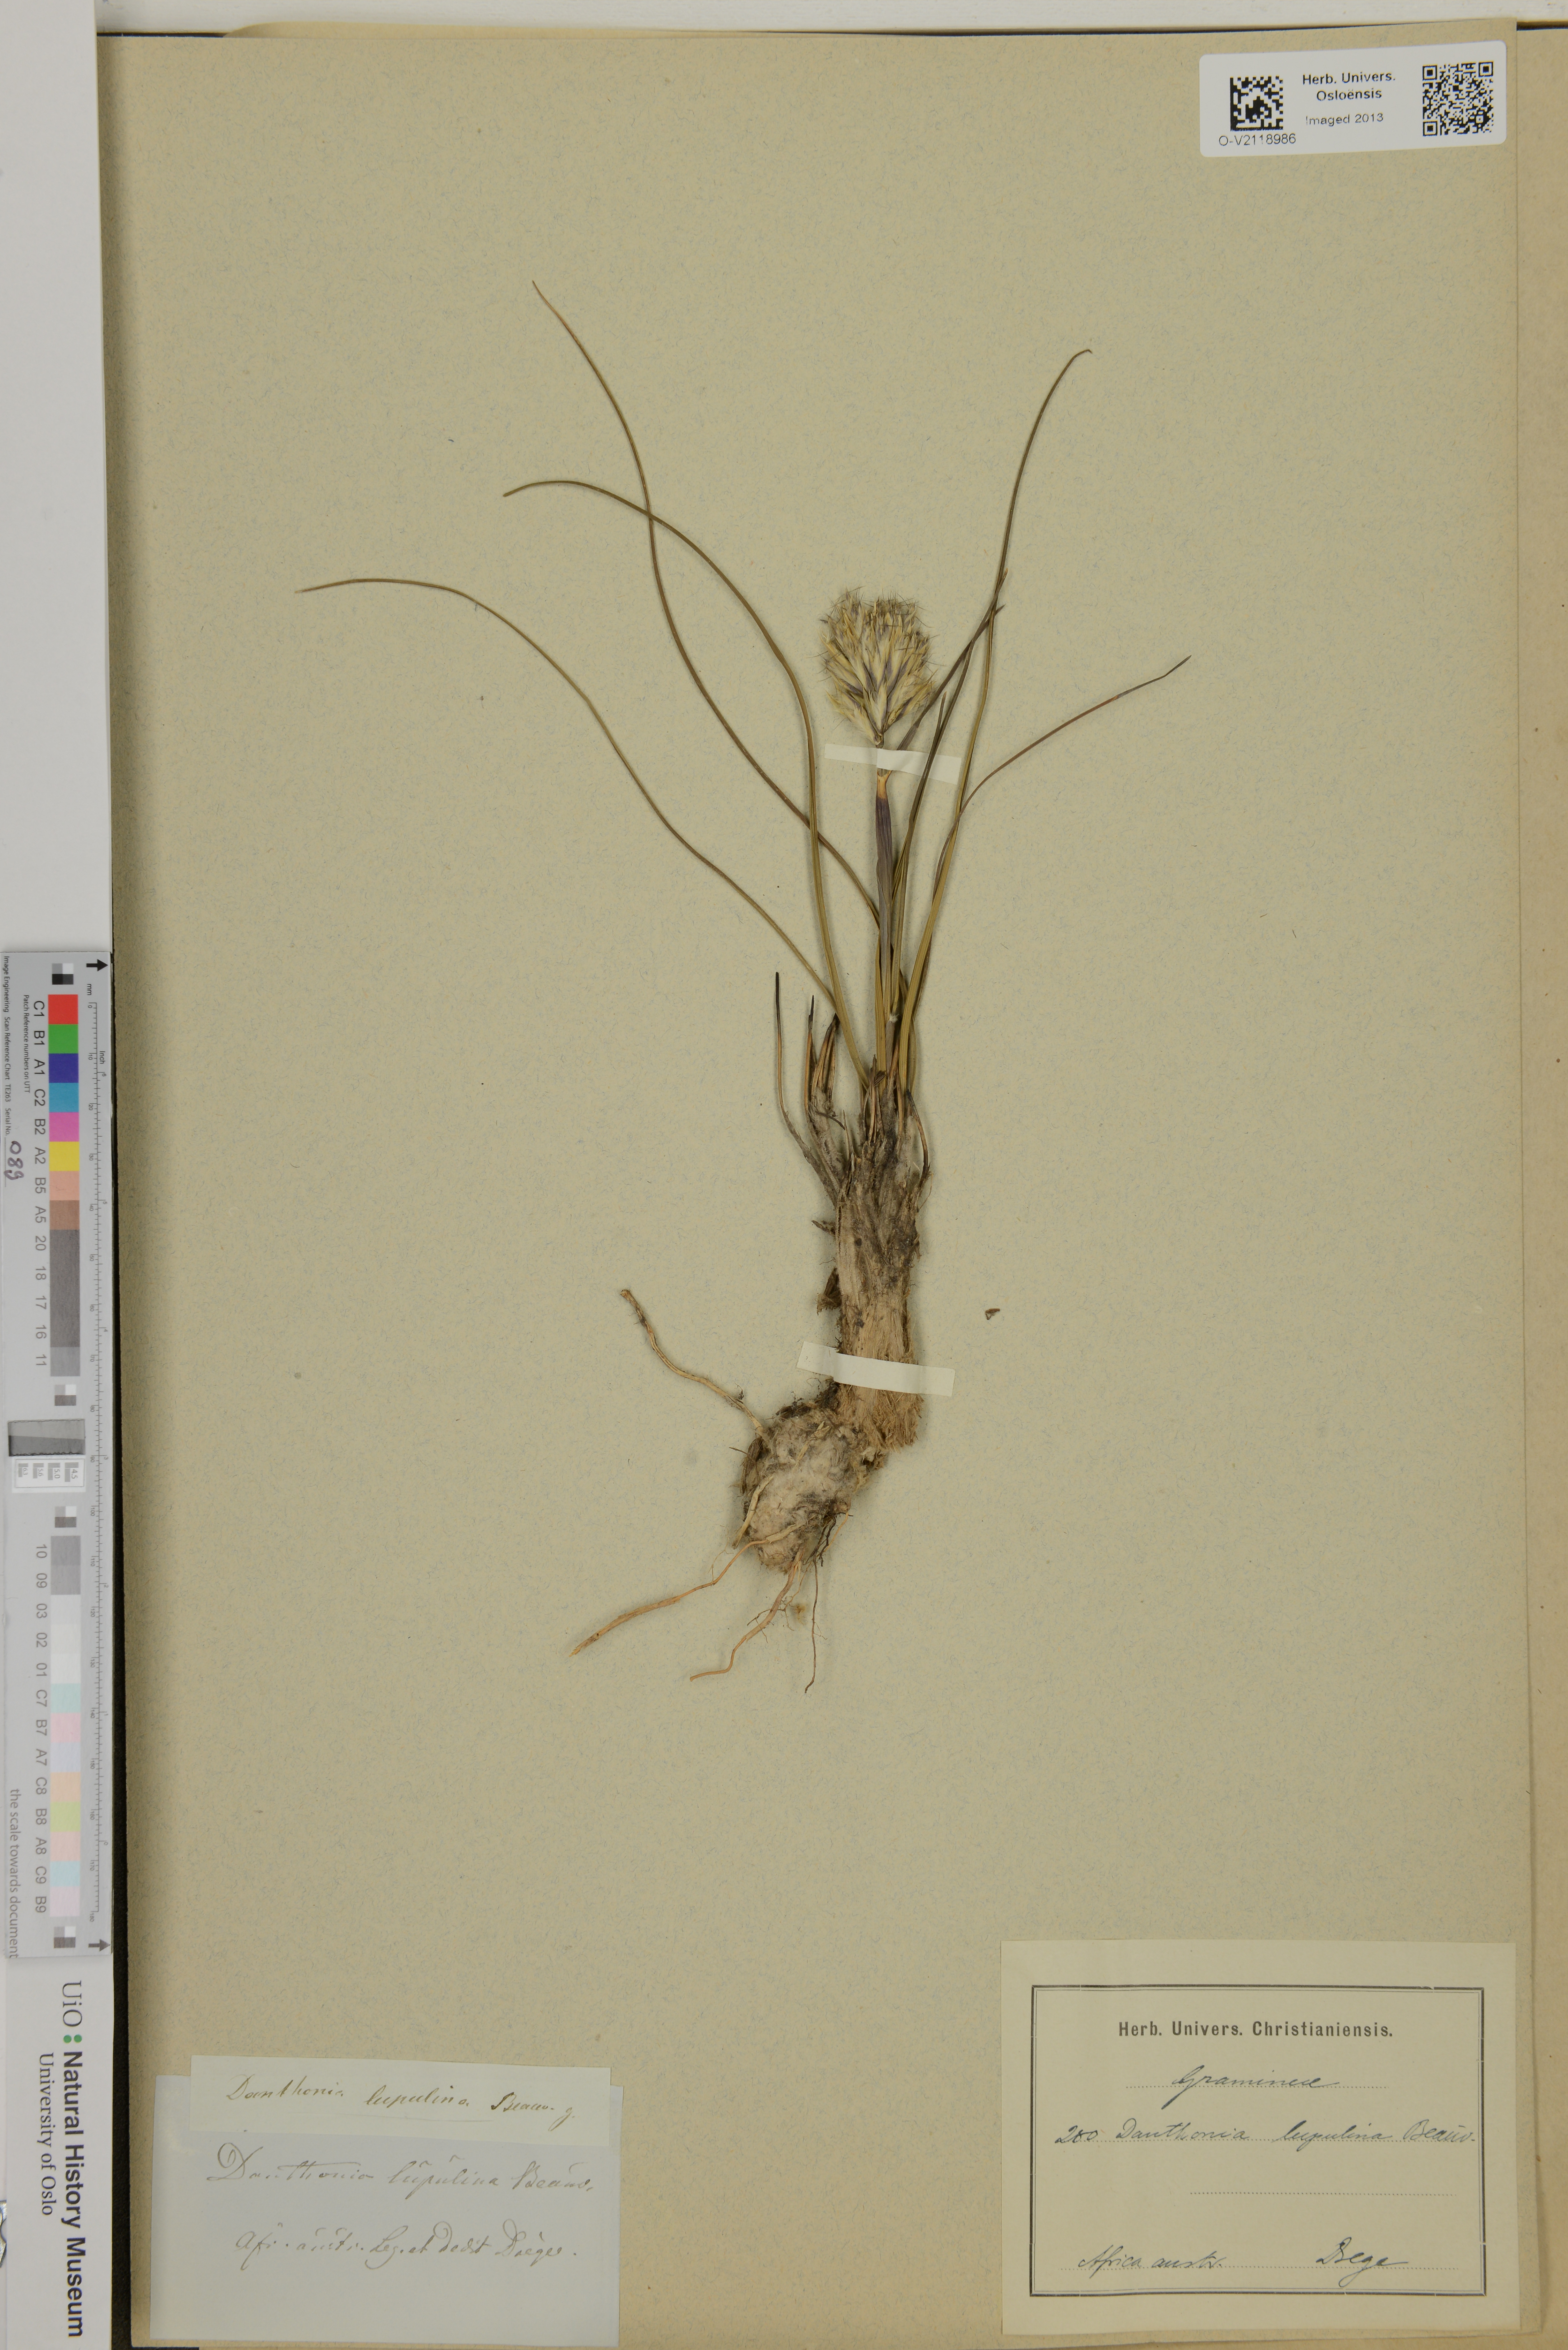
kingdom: Plantae
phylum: Tracheophyta
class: Liliopsida
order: Poales
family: Poaceae
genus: Danthonia
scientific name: Danthonia lupulina
